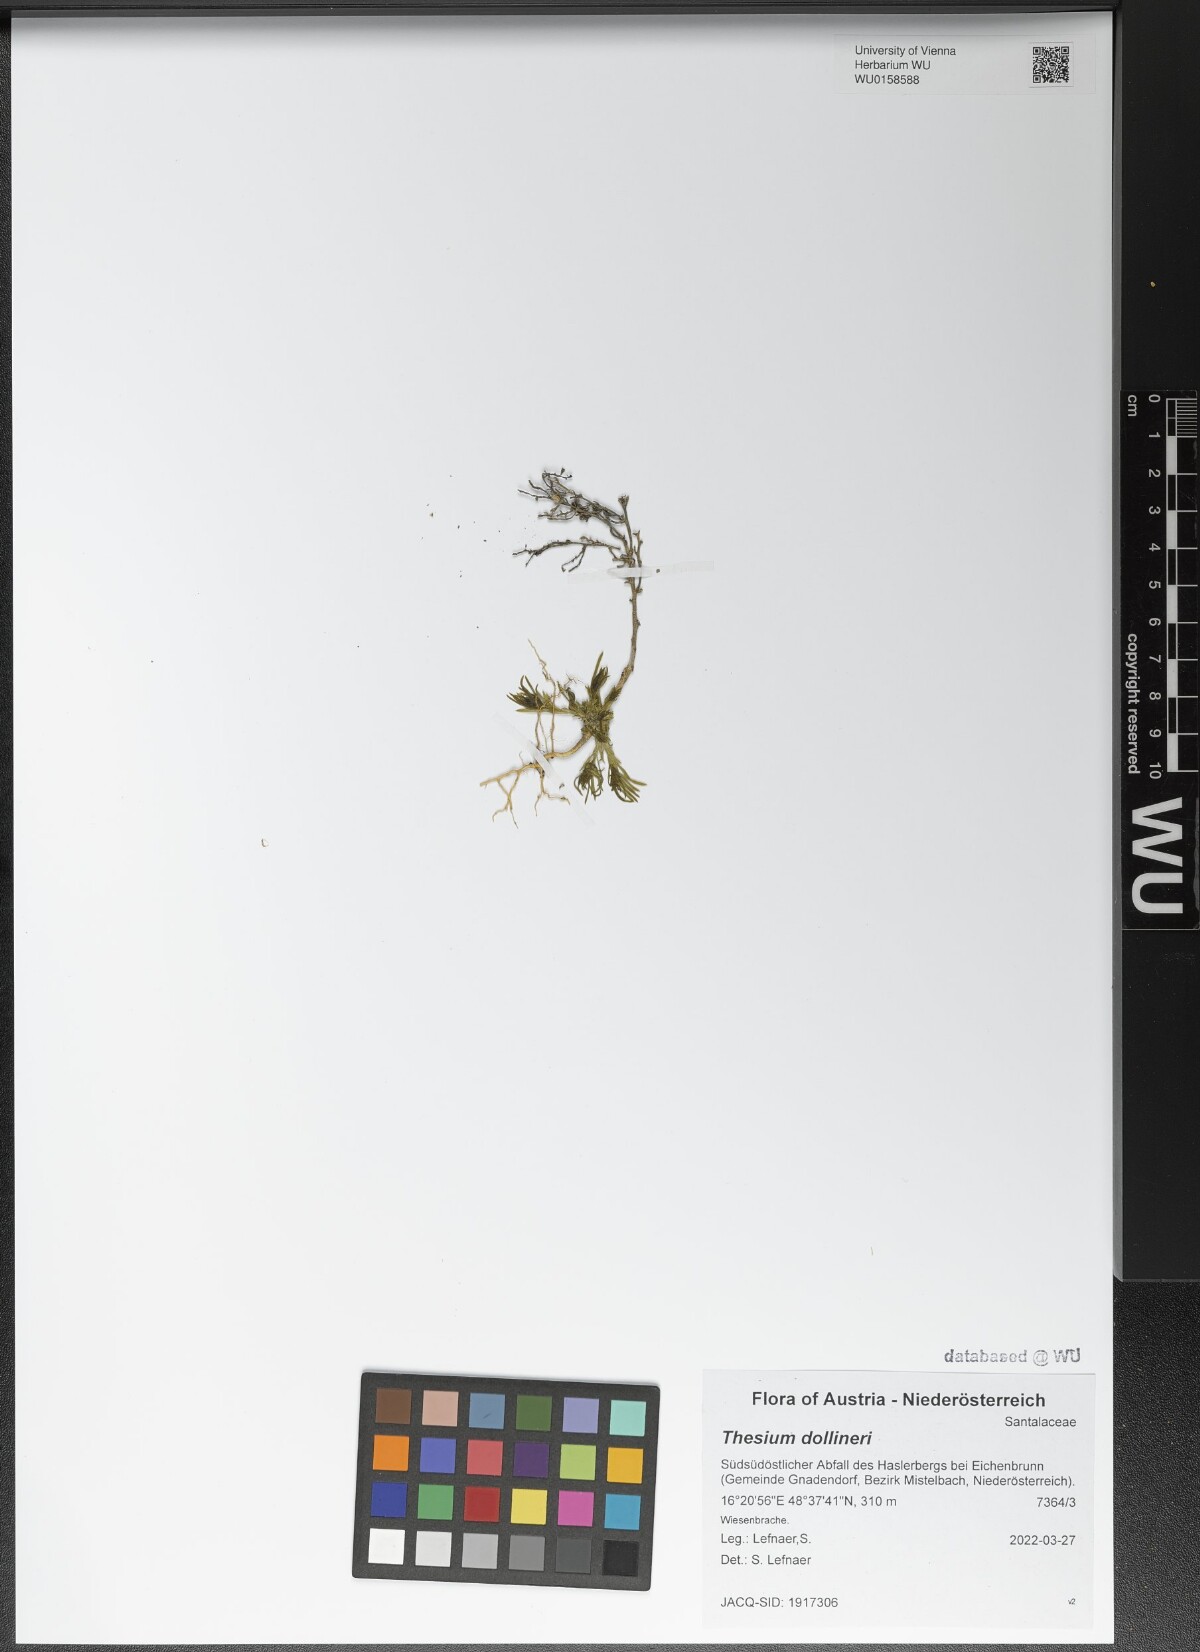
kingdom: Plantae
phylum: Tracheophyta
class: Magnoliopsida
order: Santalales
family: Thesiaceae
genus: Thesium
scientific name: Thesium dollineri
